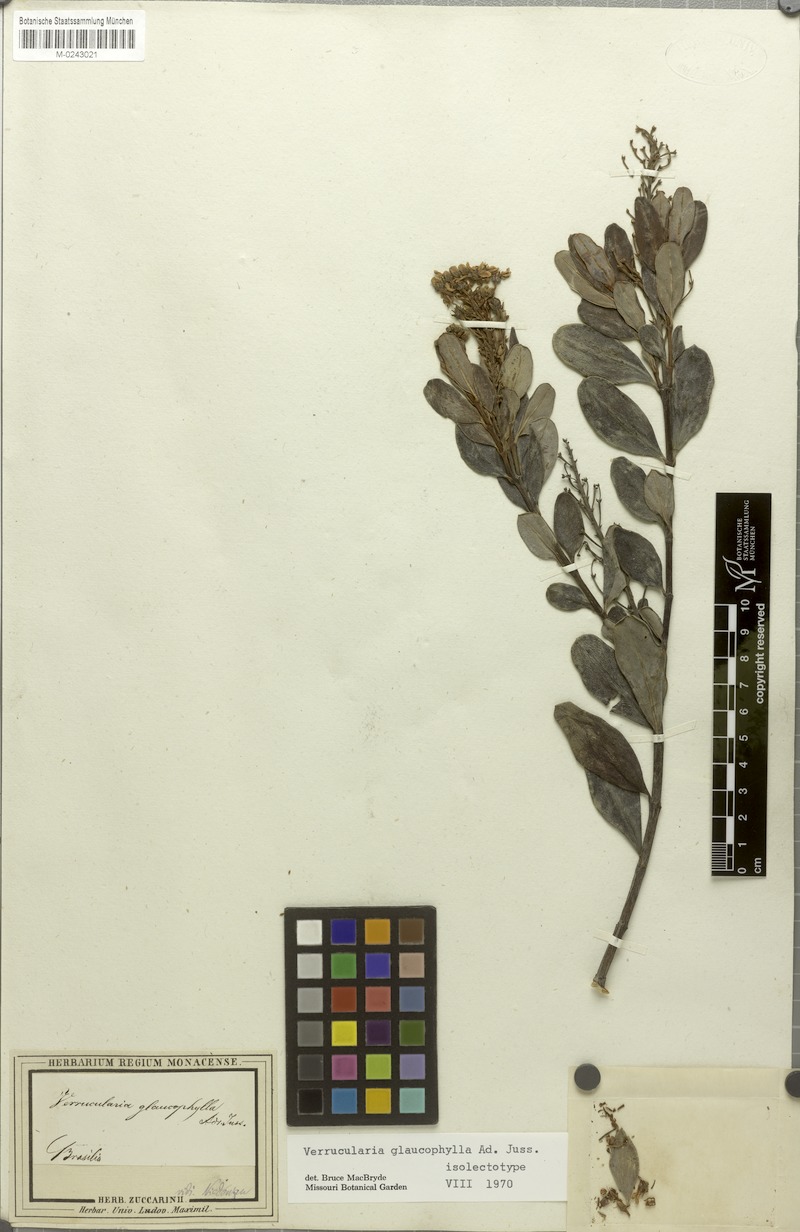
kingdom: Plantae
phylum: Tracheophyta
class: Magnoliopsida
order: Malpighiales
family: Malpighiaceae
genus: Verrucularina
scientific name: Verrucularina glaucophylla
